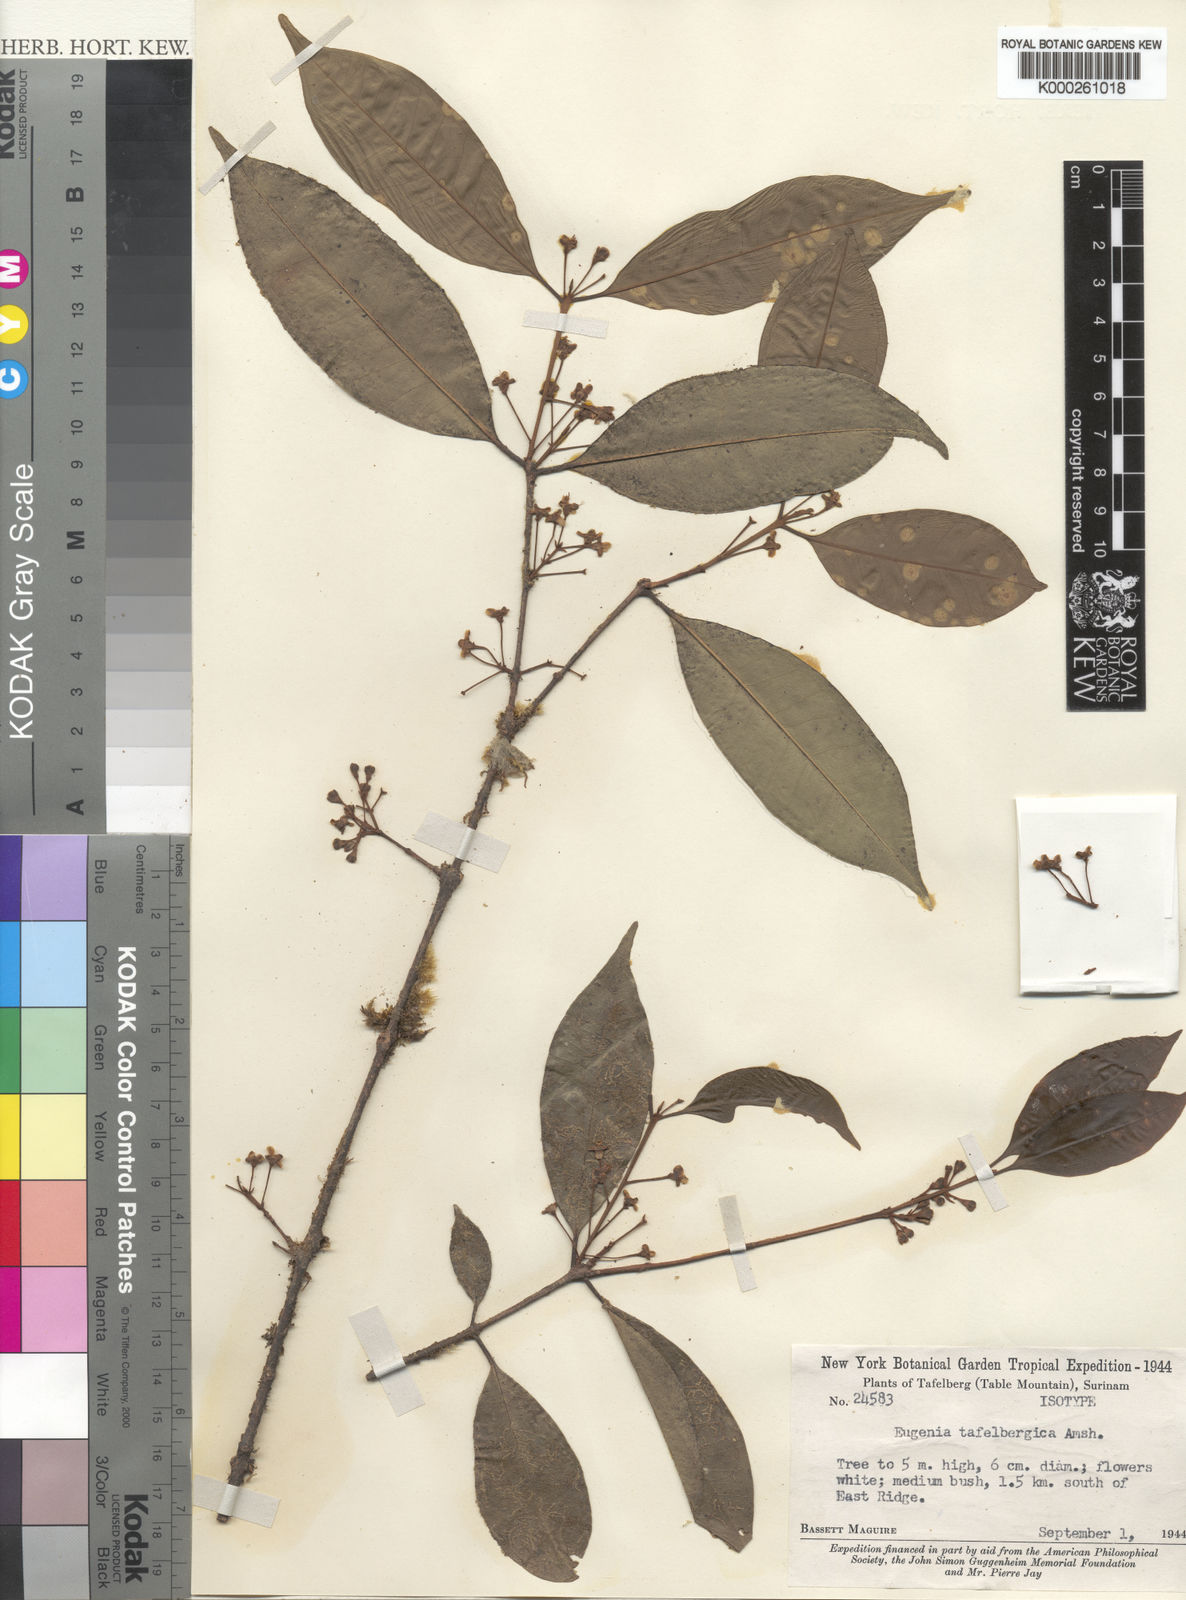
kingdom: Plantae
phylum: Tracheophyta
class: Magnoliopsida
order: Myrtales
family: Myrtaceae
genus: Eugenia
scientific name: Eugenia tafelbergica
